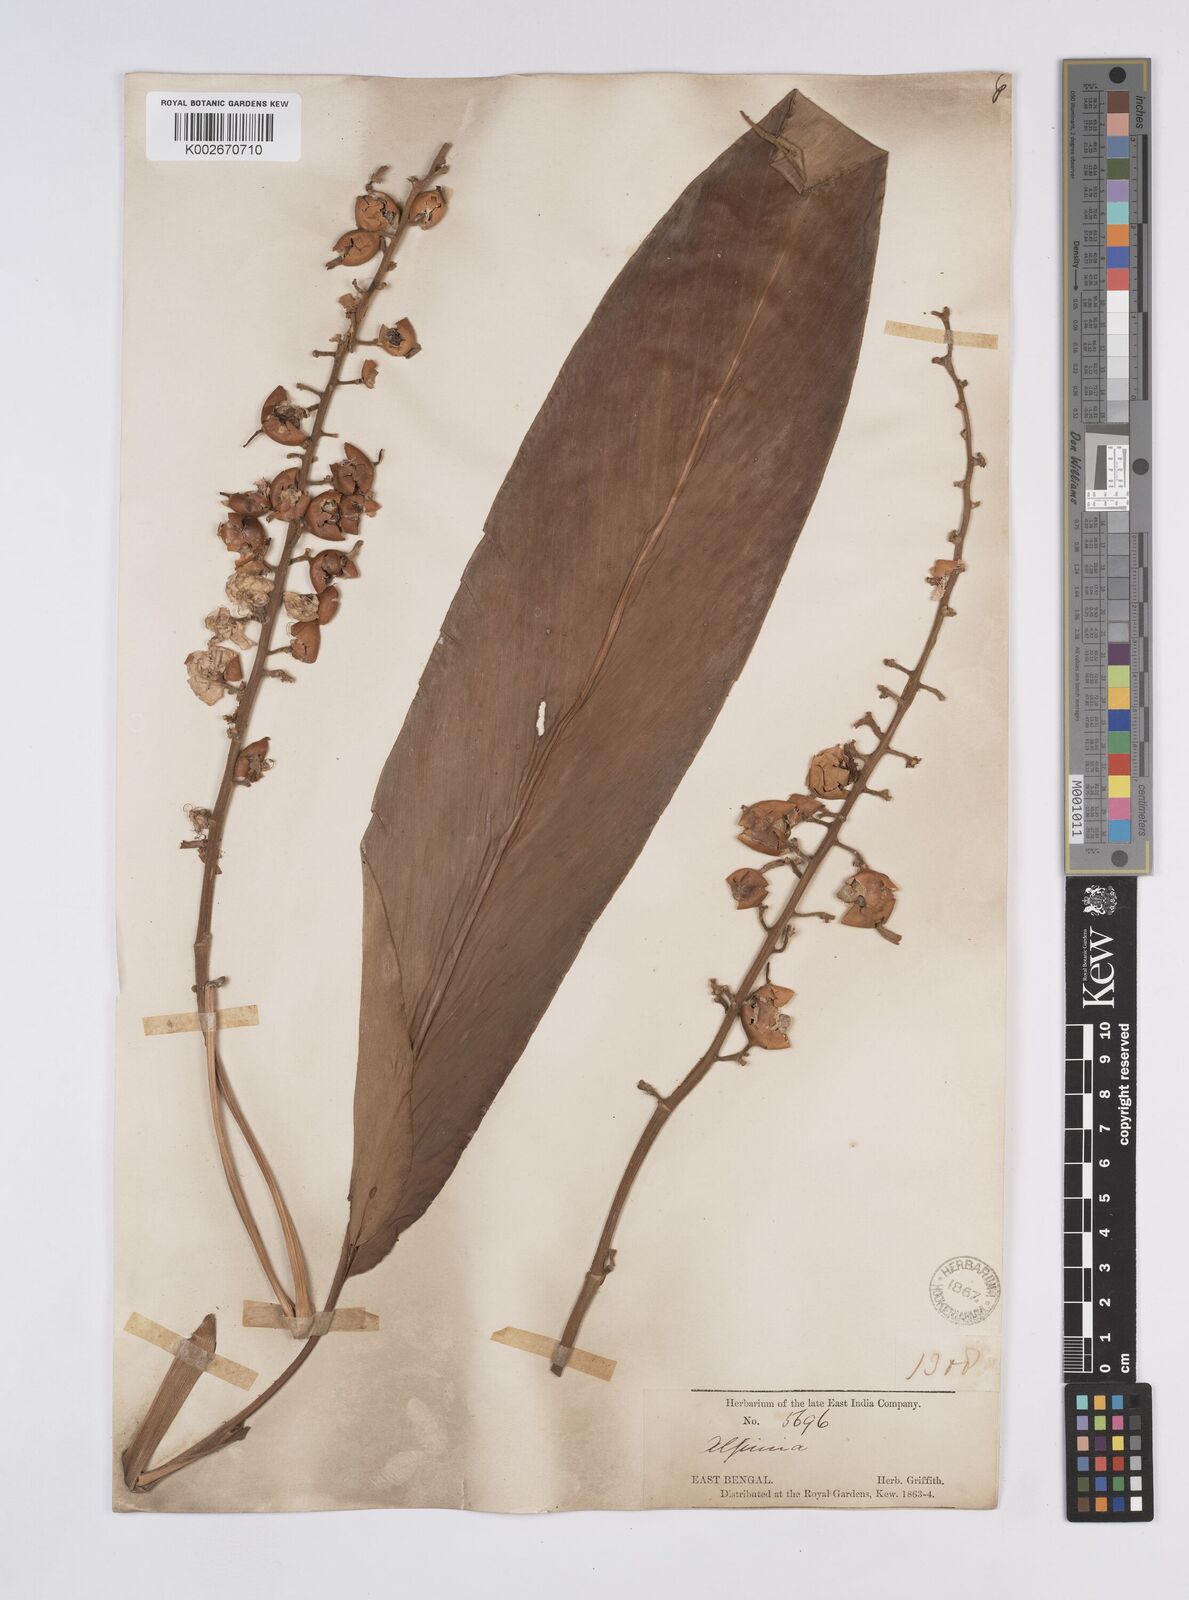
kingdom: Plantae
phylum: Tracheophyta
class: Liliopsida
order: Zingiberales
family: Zingiberaceae
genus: Alpinia
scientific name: Alpinia galanga
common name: Siamese-ginger
